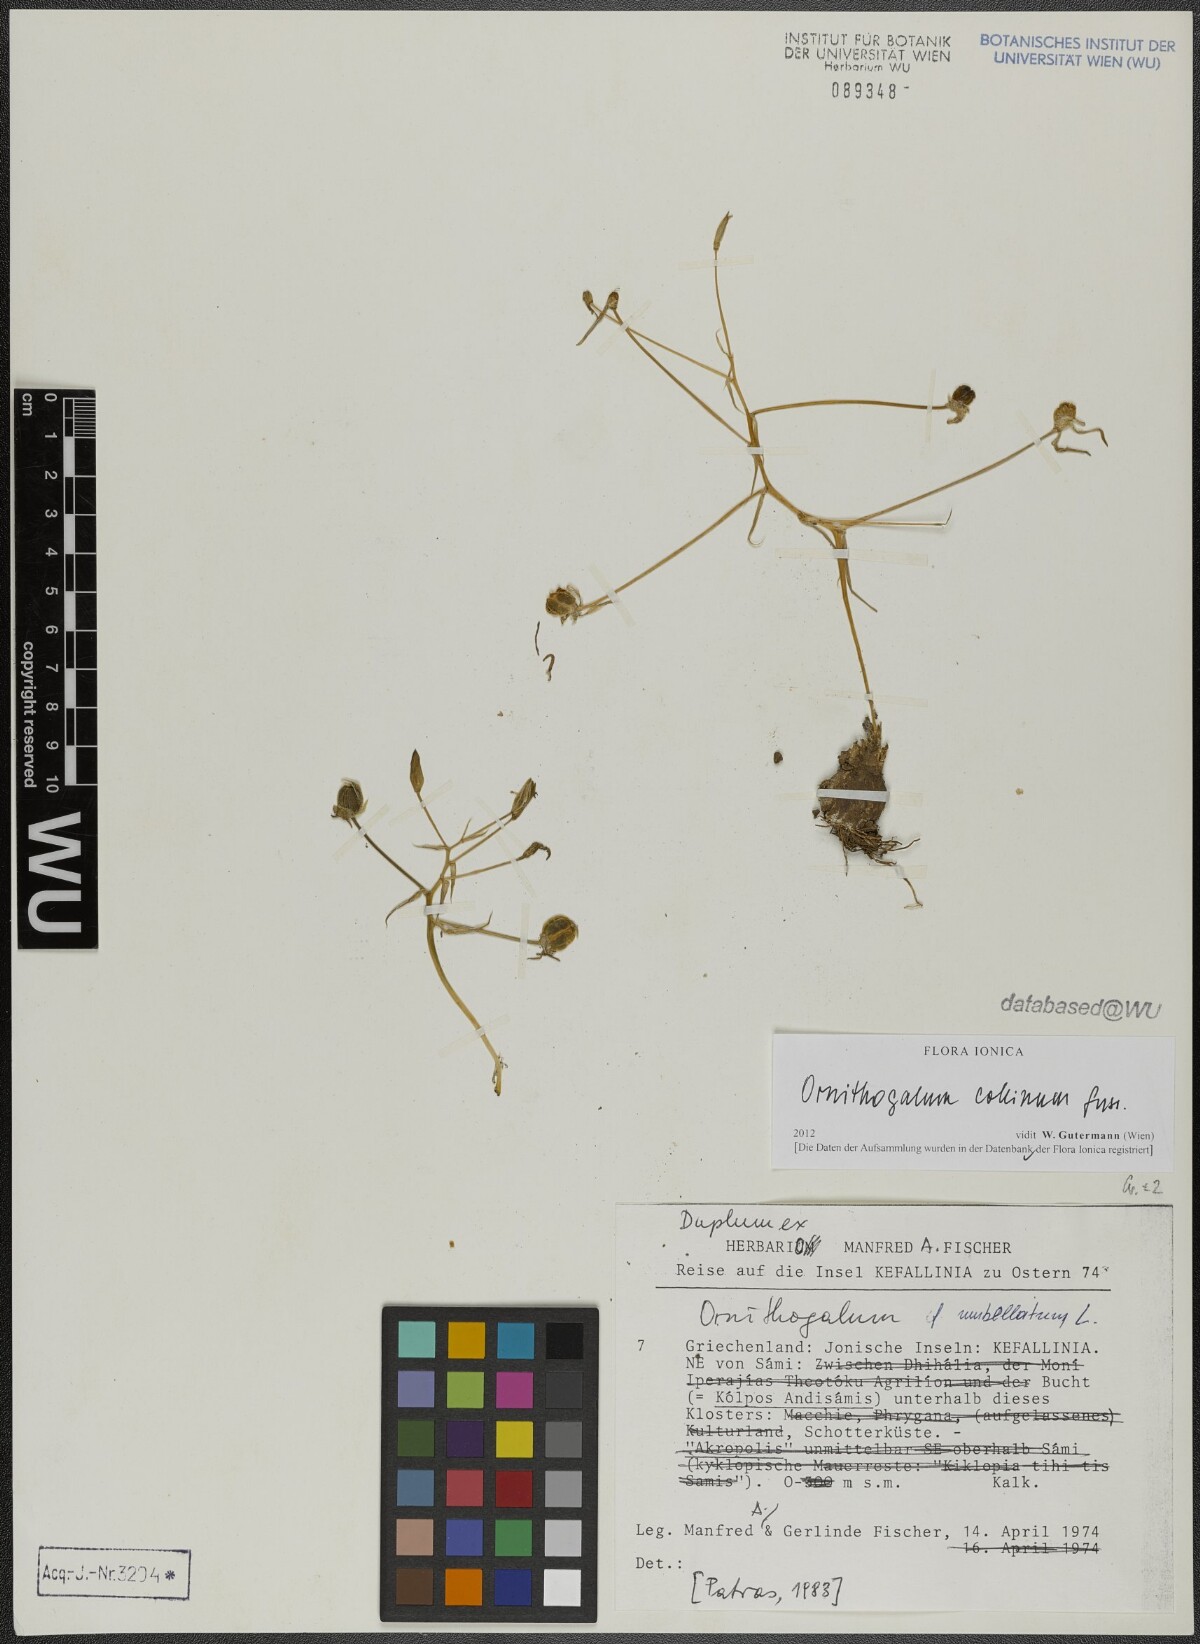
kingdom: Plantae
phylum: Tracheophyta
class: Liliopsida
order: Asparagales
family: Asparagaceae
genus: Ornithogalum
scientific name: Ornithogalum collinum
